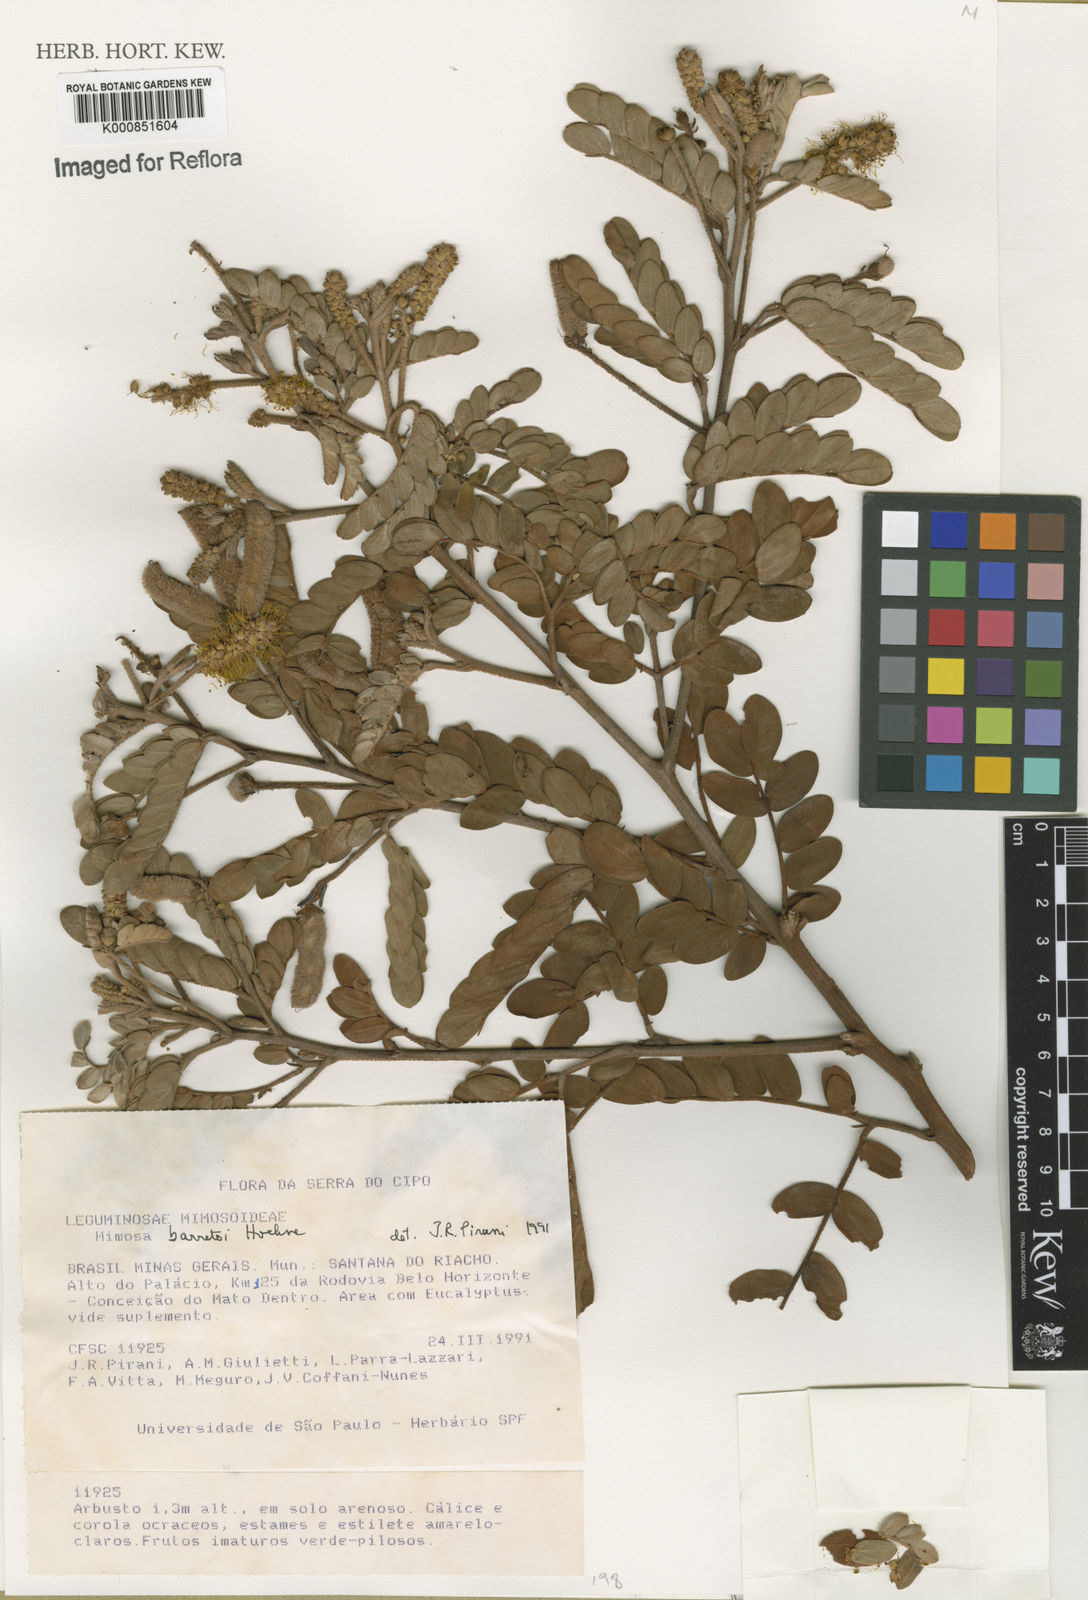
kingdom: Plantae
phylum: Tracheophyta
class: Magnoliopsida
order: Fabales
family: Fabaceae
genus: Mimosa
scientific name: Mimosa barretoi
